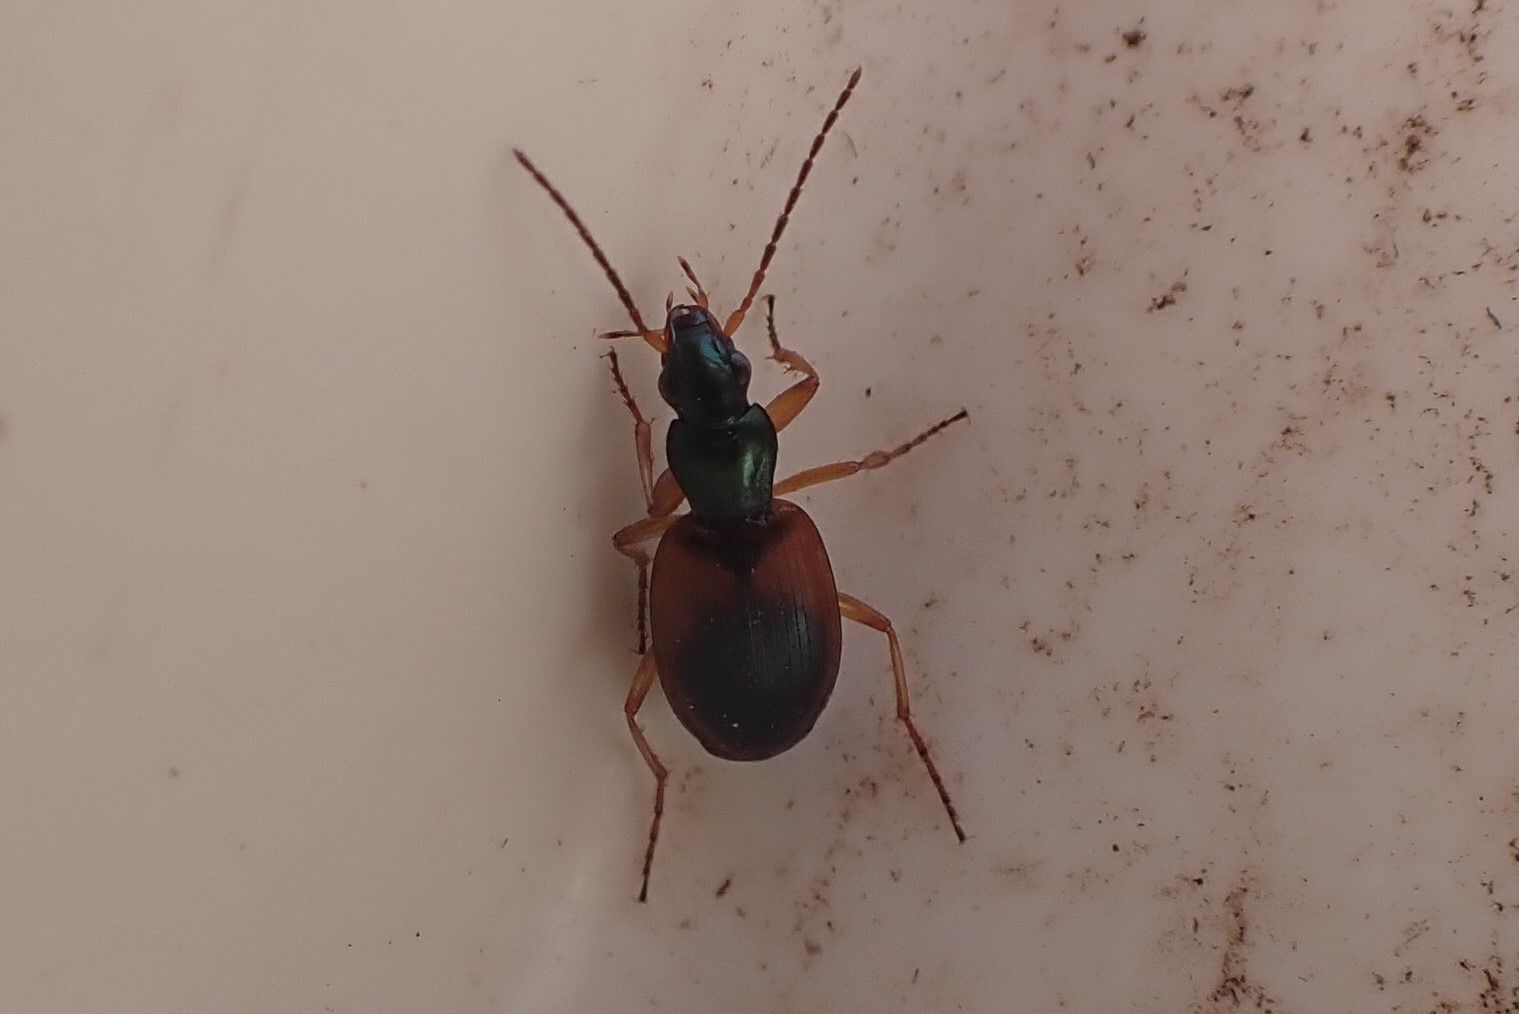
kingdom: Animalia
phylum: Arthropoda
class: Insecta
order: Coleoptera
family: Carabidae
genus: Anchomenus
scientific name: Anchomenus dorsalis
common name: Spraglet kvikløber
